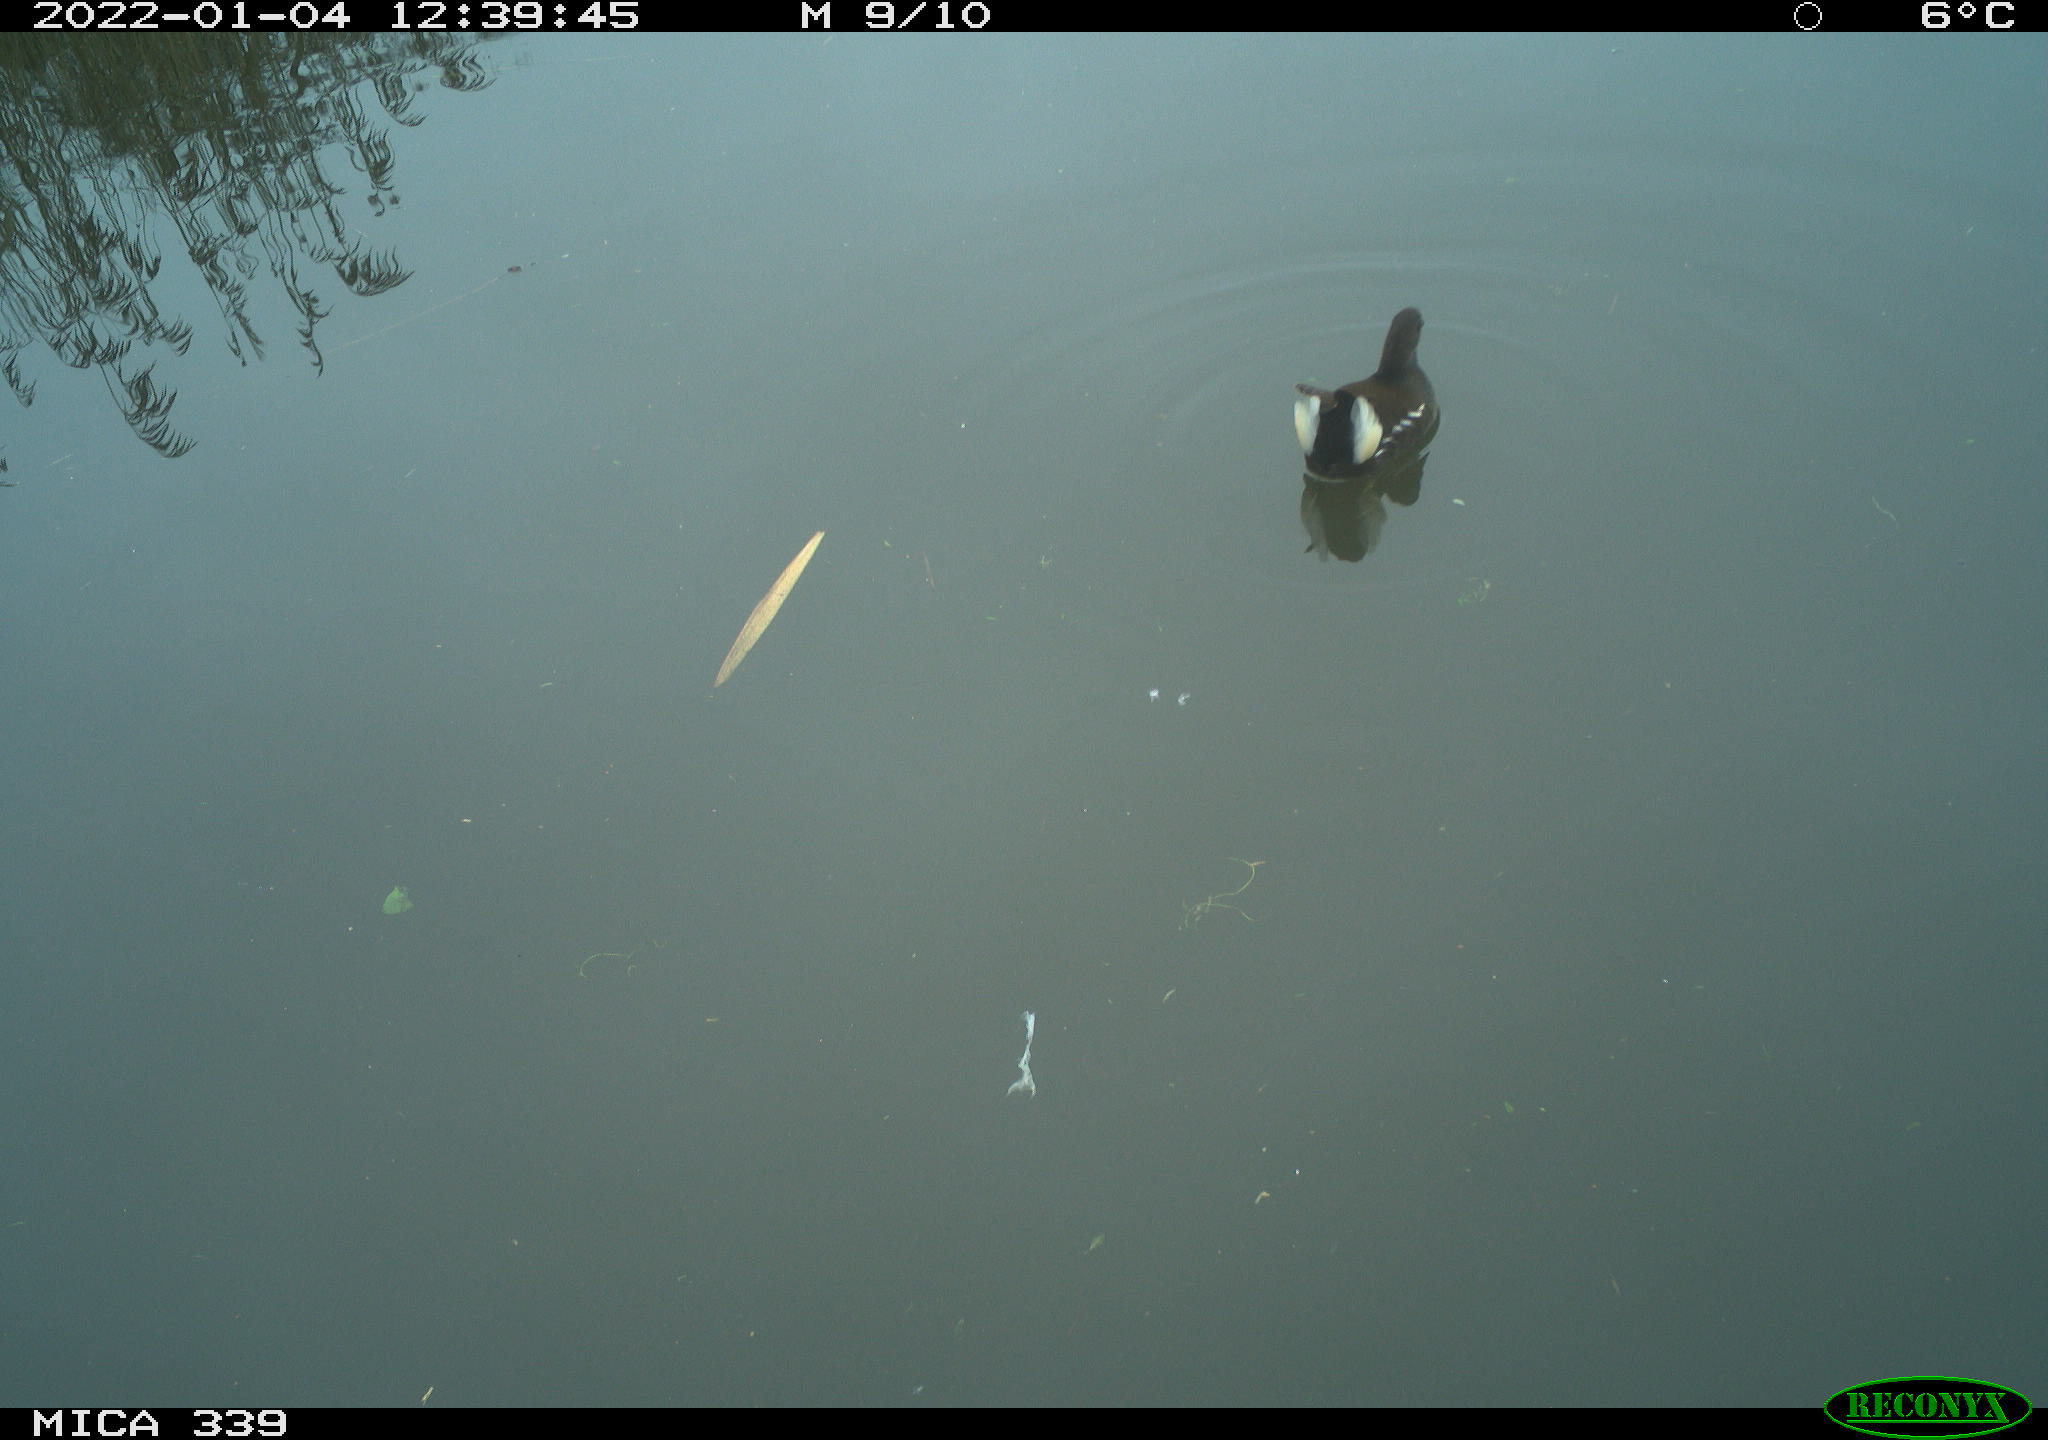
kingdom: Animalia
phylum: Chordata
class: Aves
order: Gruiformes
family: Rallidae
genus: Gallinula
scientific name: Gallinula chloropus
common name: Common moorhen
